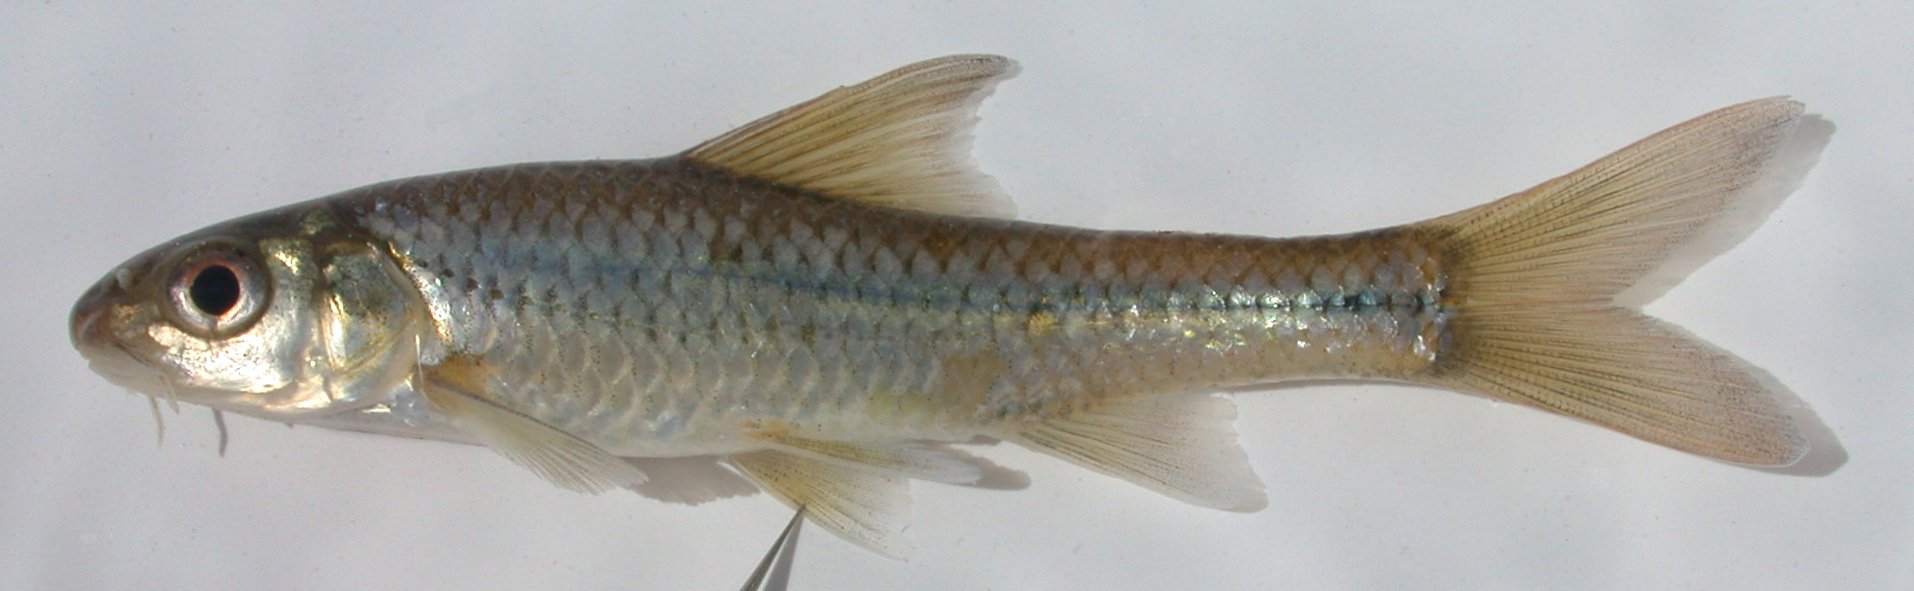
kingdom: Animalia
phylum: Chordata
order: Cypriniformes
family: Cyprinidae
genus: Enteromius
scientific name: Enteromius unitaeniatus
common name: Longbeard barb
